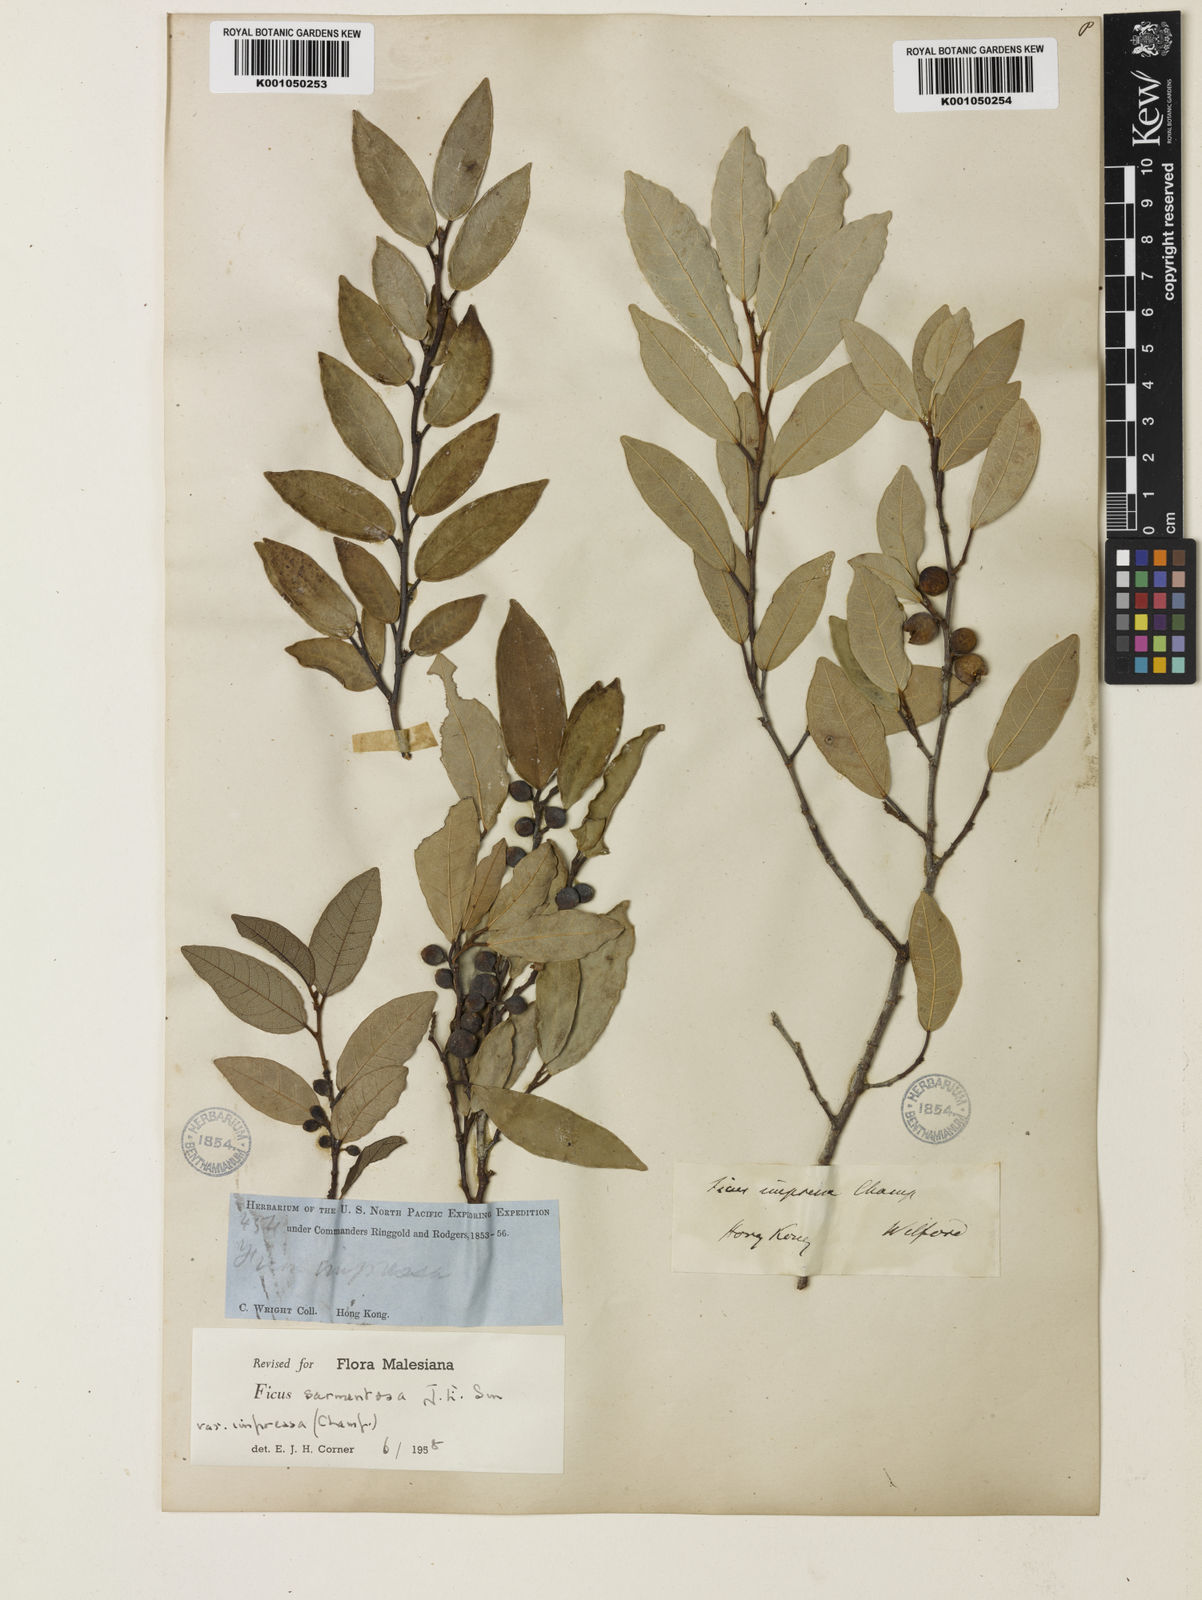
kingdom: Plantae
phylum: Tracheophyta
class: Magnoliopsida
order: Rosales
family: Moraceae
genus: Ficus
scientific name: Ficus sarmentosa
